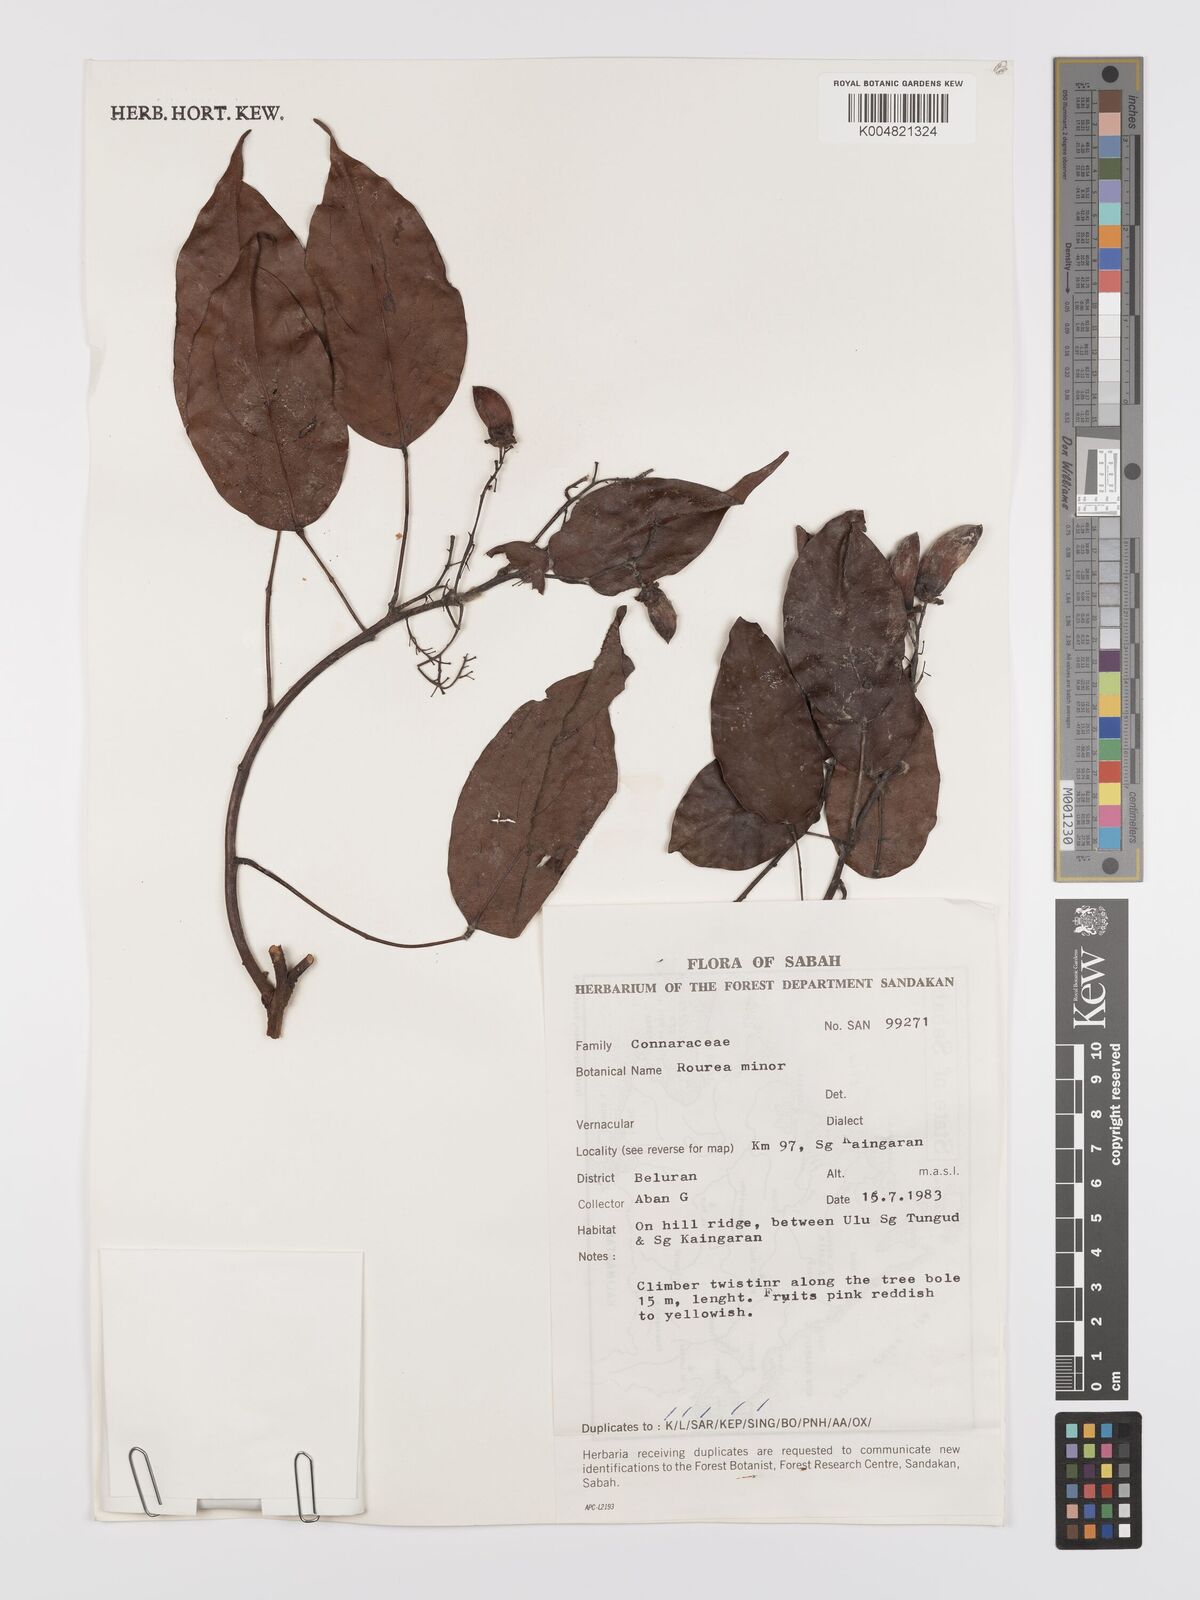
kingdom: Plantae
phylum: Tracheophyta
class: Magnoliopsida
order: Oxalidales
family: Connaraceae
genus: Rourea
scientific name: Rourea minor
